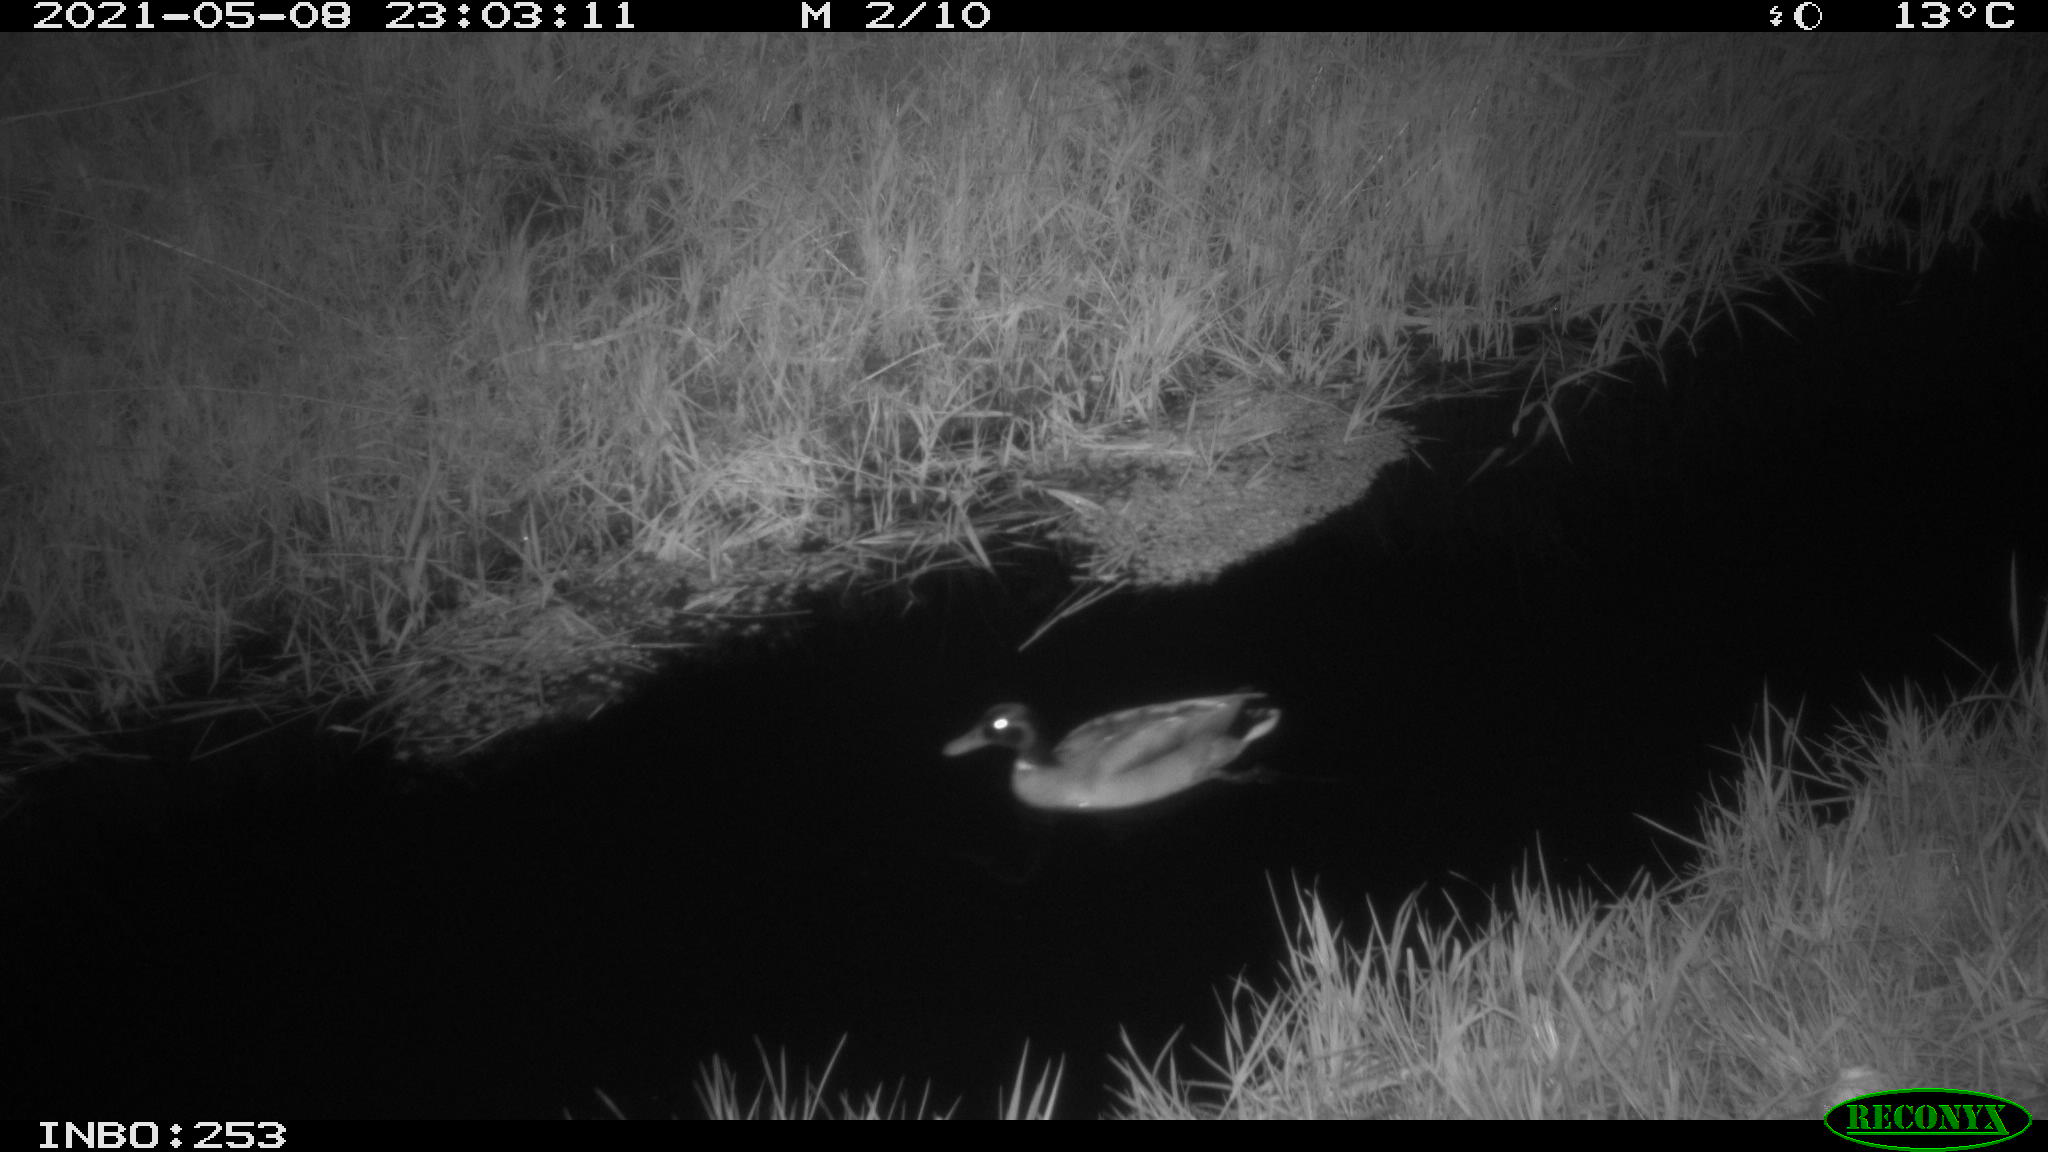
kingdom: Animalia
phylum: Chordata
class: Aves
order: Anseriformes
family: Anatidae
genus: Anas
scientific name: Anas platyrhynchos
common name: Mallard
